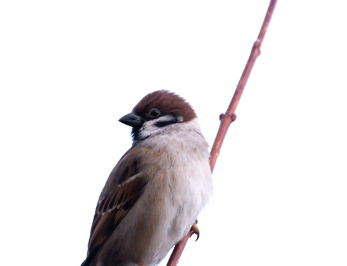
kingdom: Animalia
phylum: Chordata
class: Aves
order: Passeriformes
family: Passeridae
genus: Passer
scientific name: Passer montanus
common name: Skovspurv
